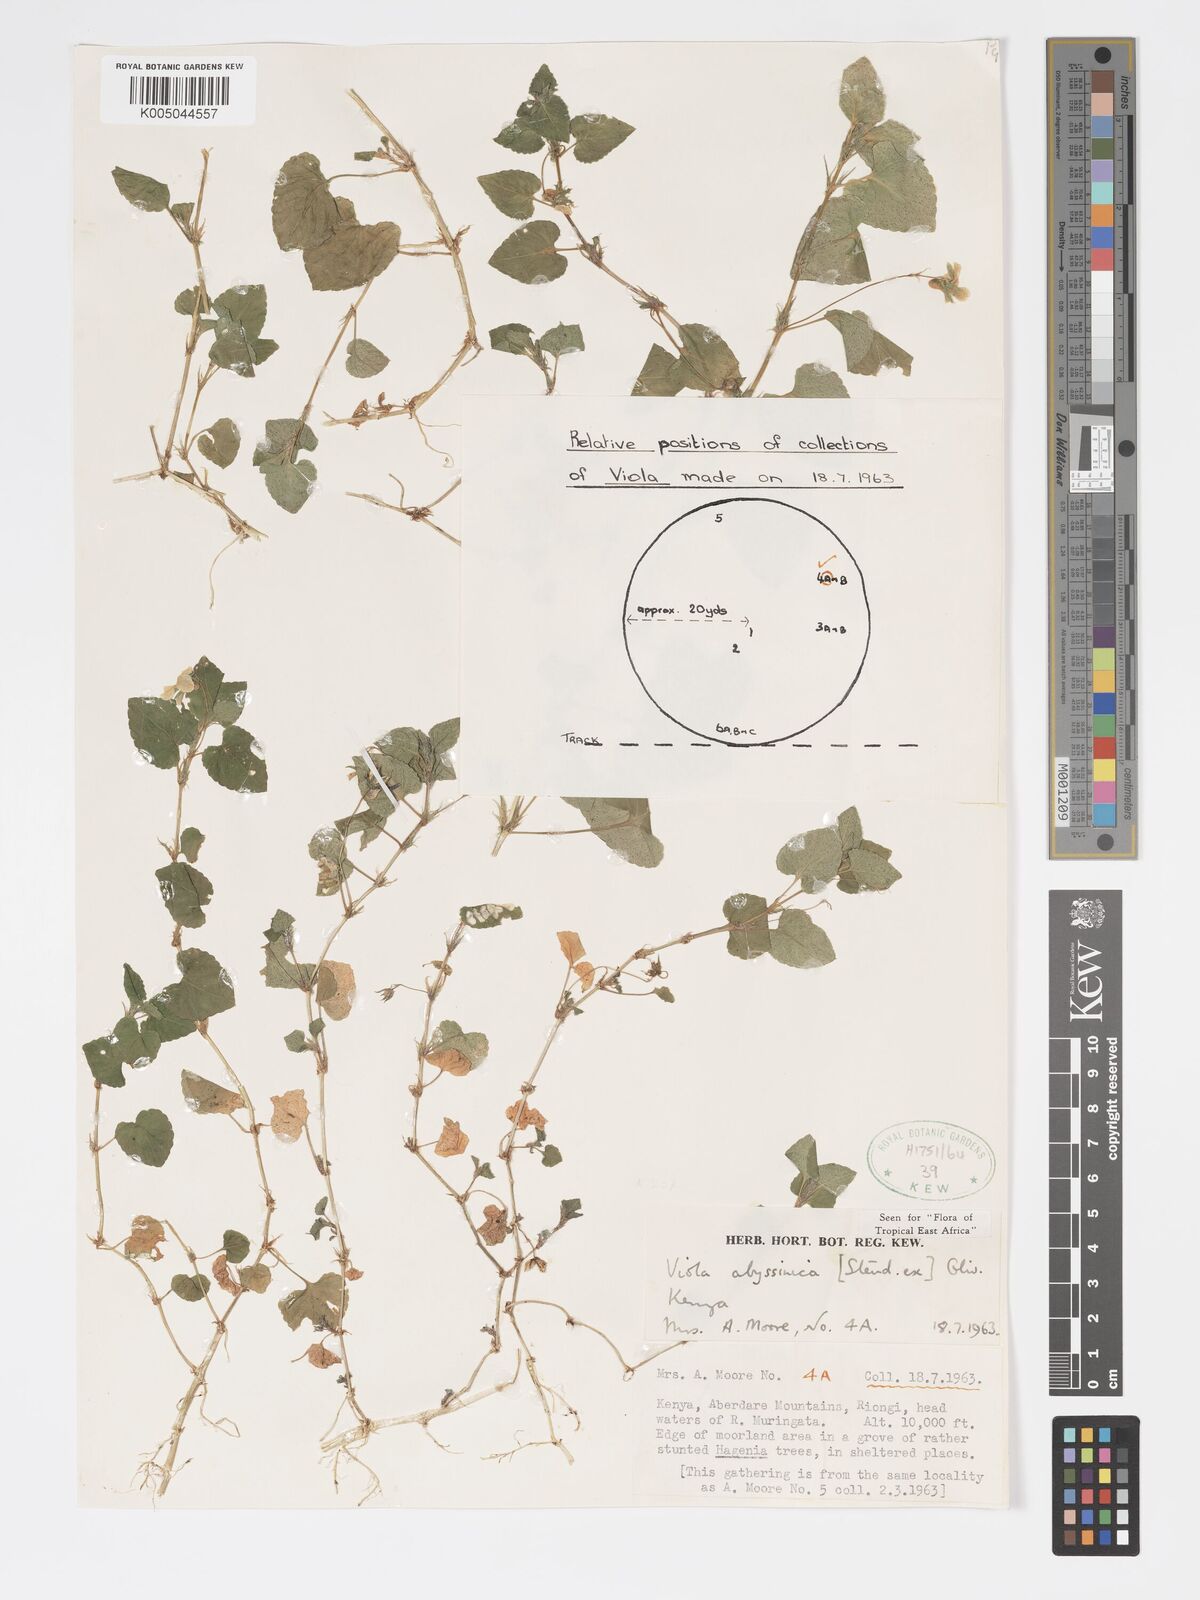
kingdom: Plantae
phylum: Tracheophyta
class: Magnoliopsida
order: Malpighiales
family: Violaceae
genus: Viola
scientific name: Viola abyssinica
